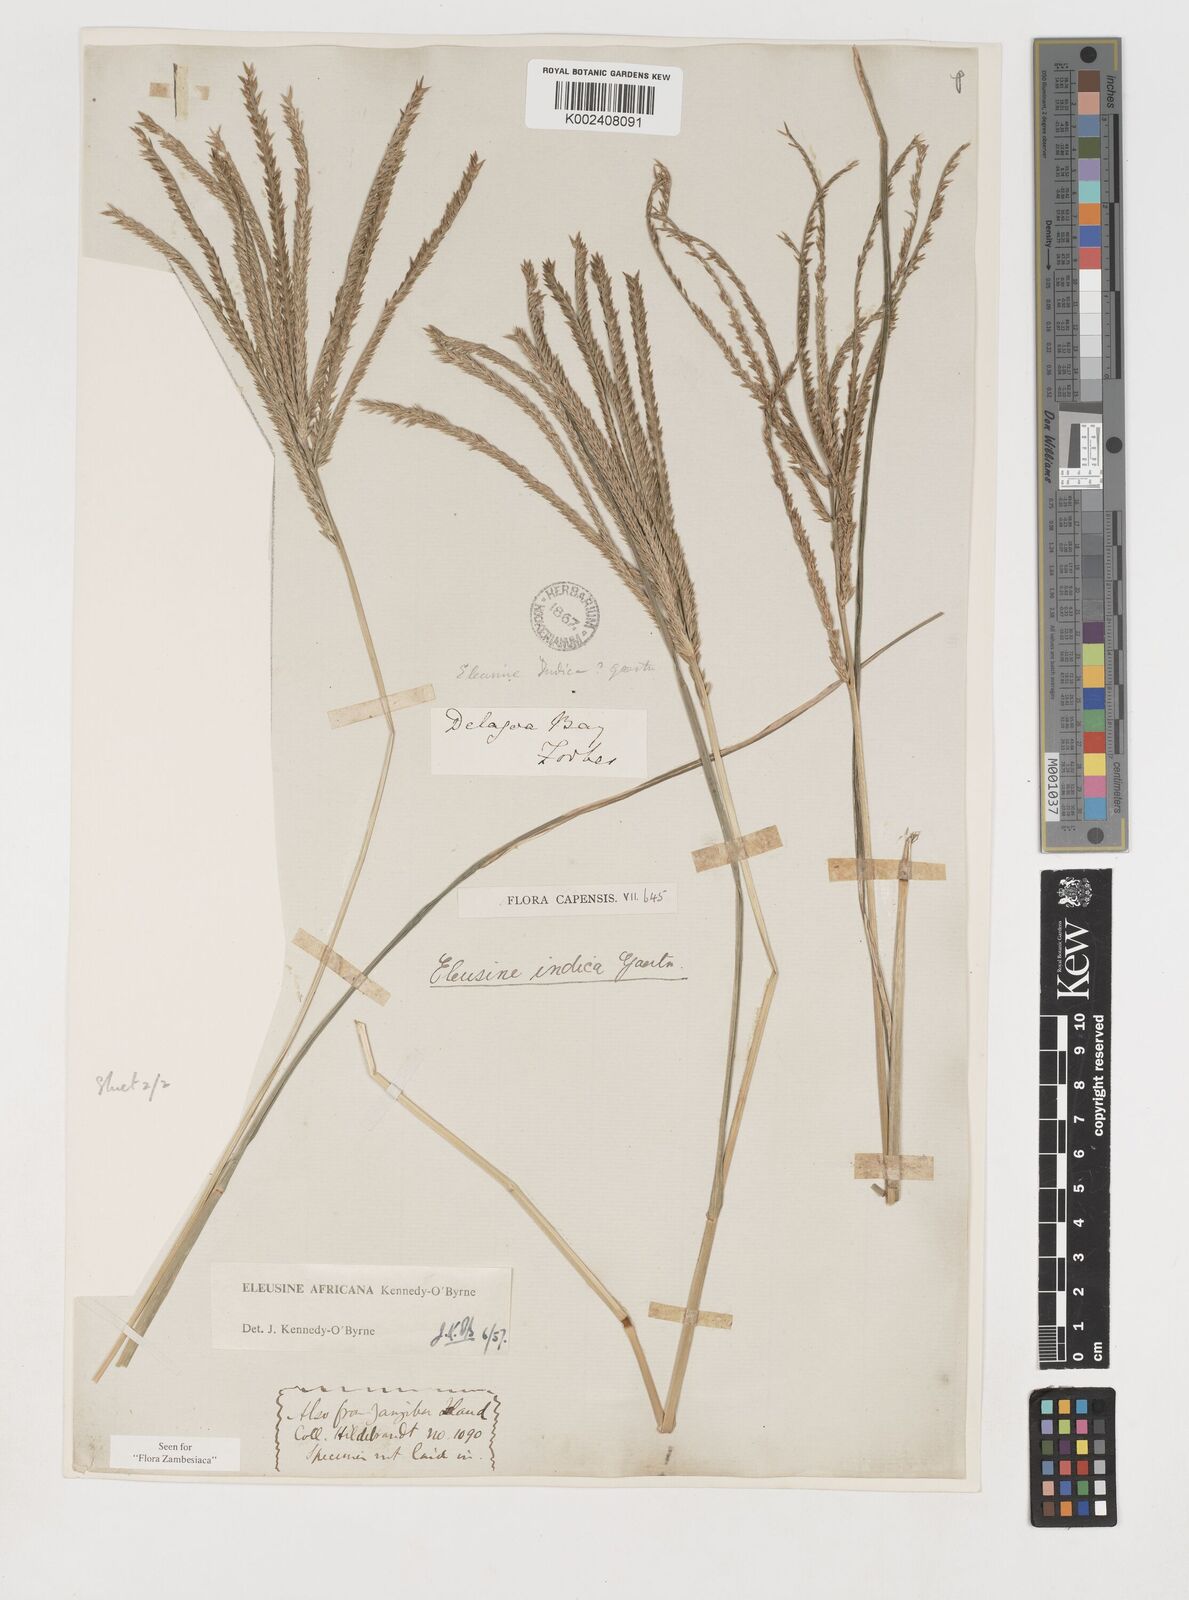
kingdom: Plantae
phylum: Tracheophyta
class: Liliopsida
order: Poales
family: Poaceae
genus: Eleusine
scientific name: Eleusine africana
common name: Wild african finger millet
